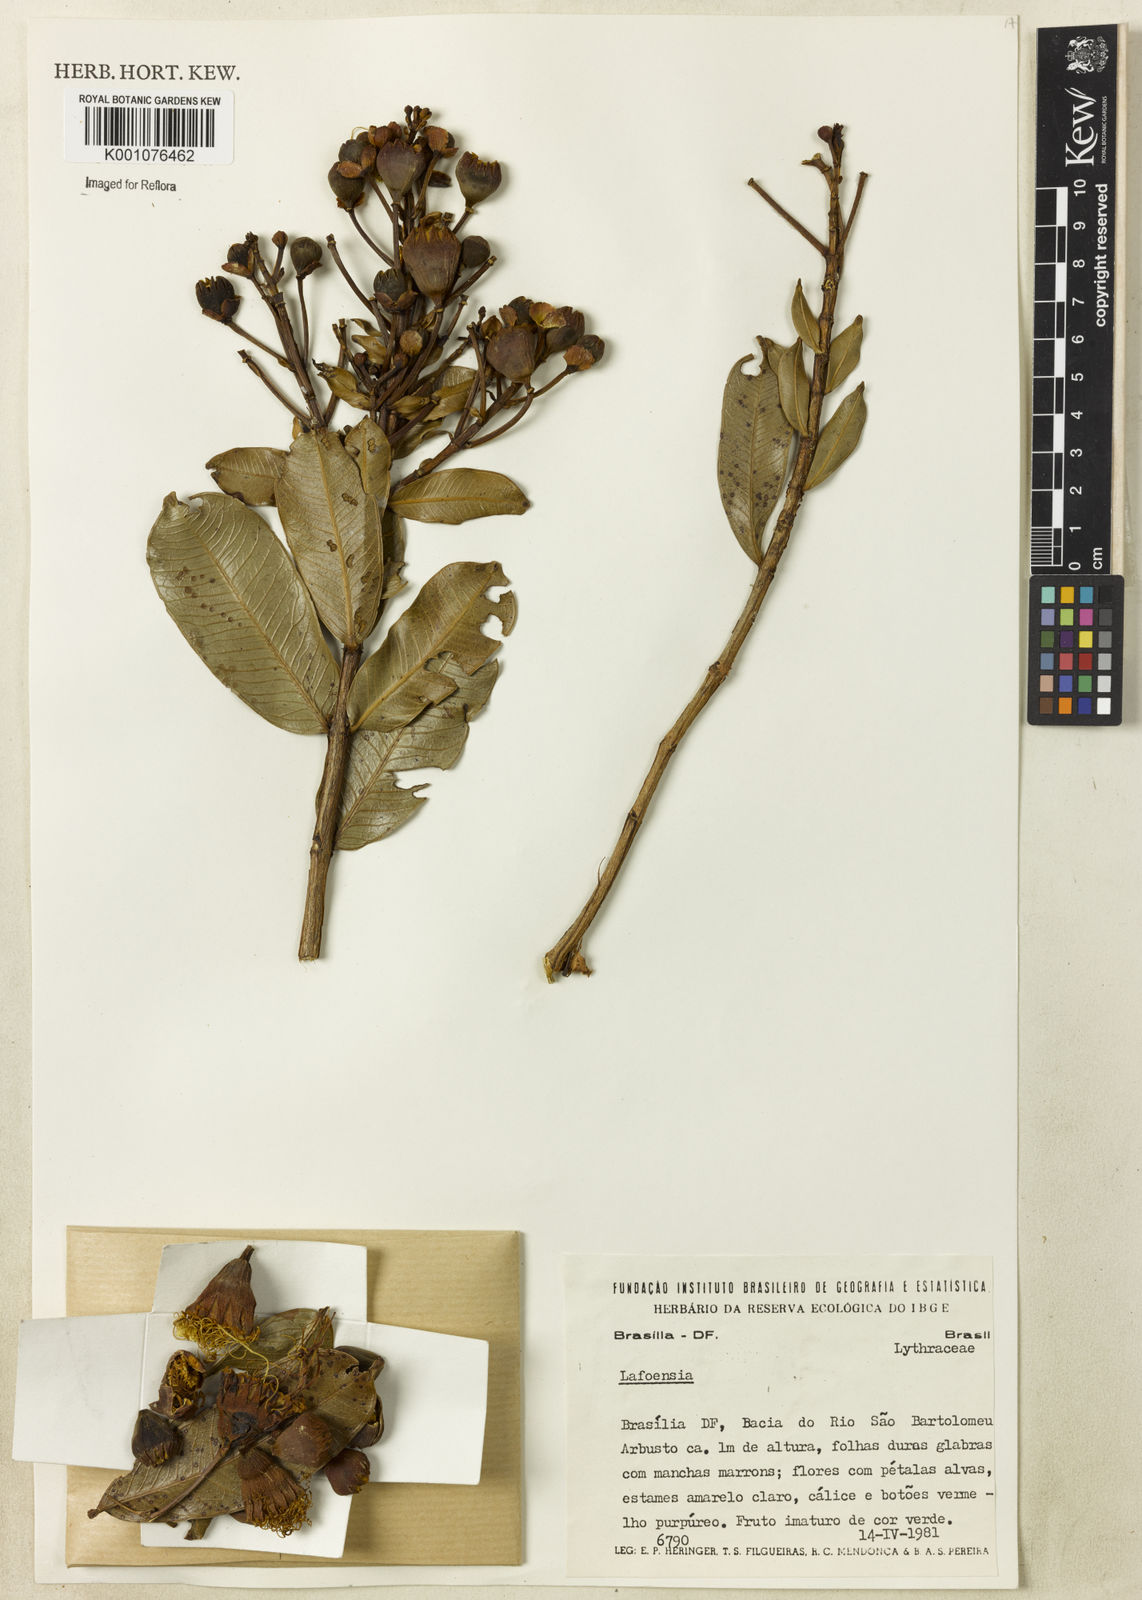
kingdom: Plantae
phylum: Tracheophyta
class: Magnoliopsida
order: Myrtales
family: Lythraceae
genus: Lafoensia
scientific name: Lafoensia
